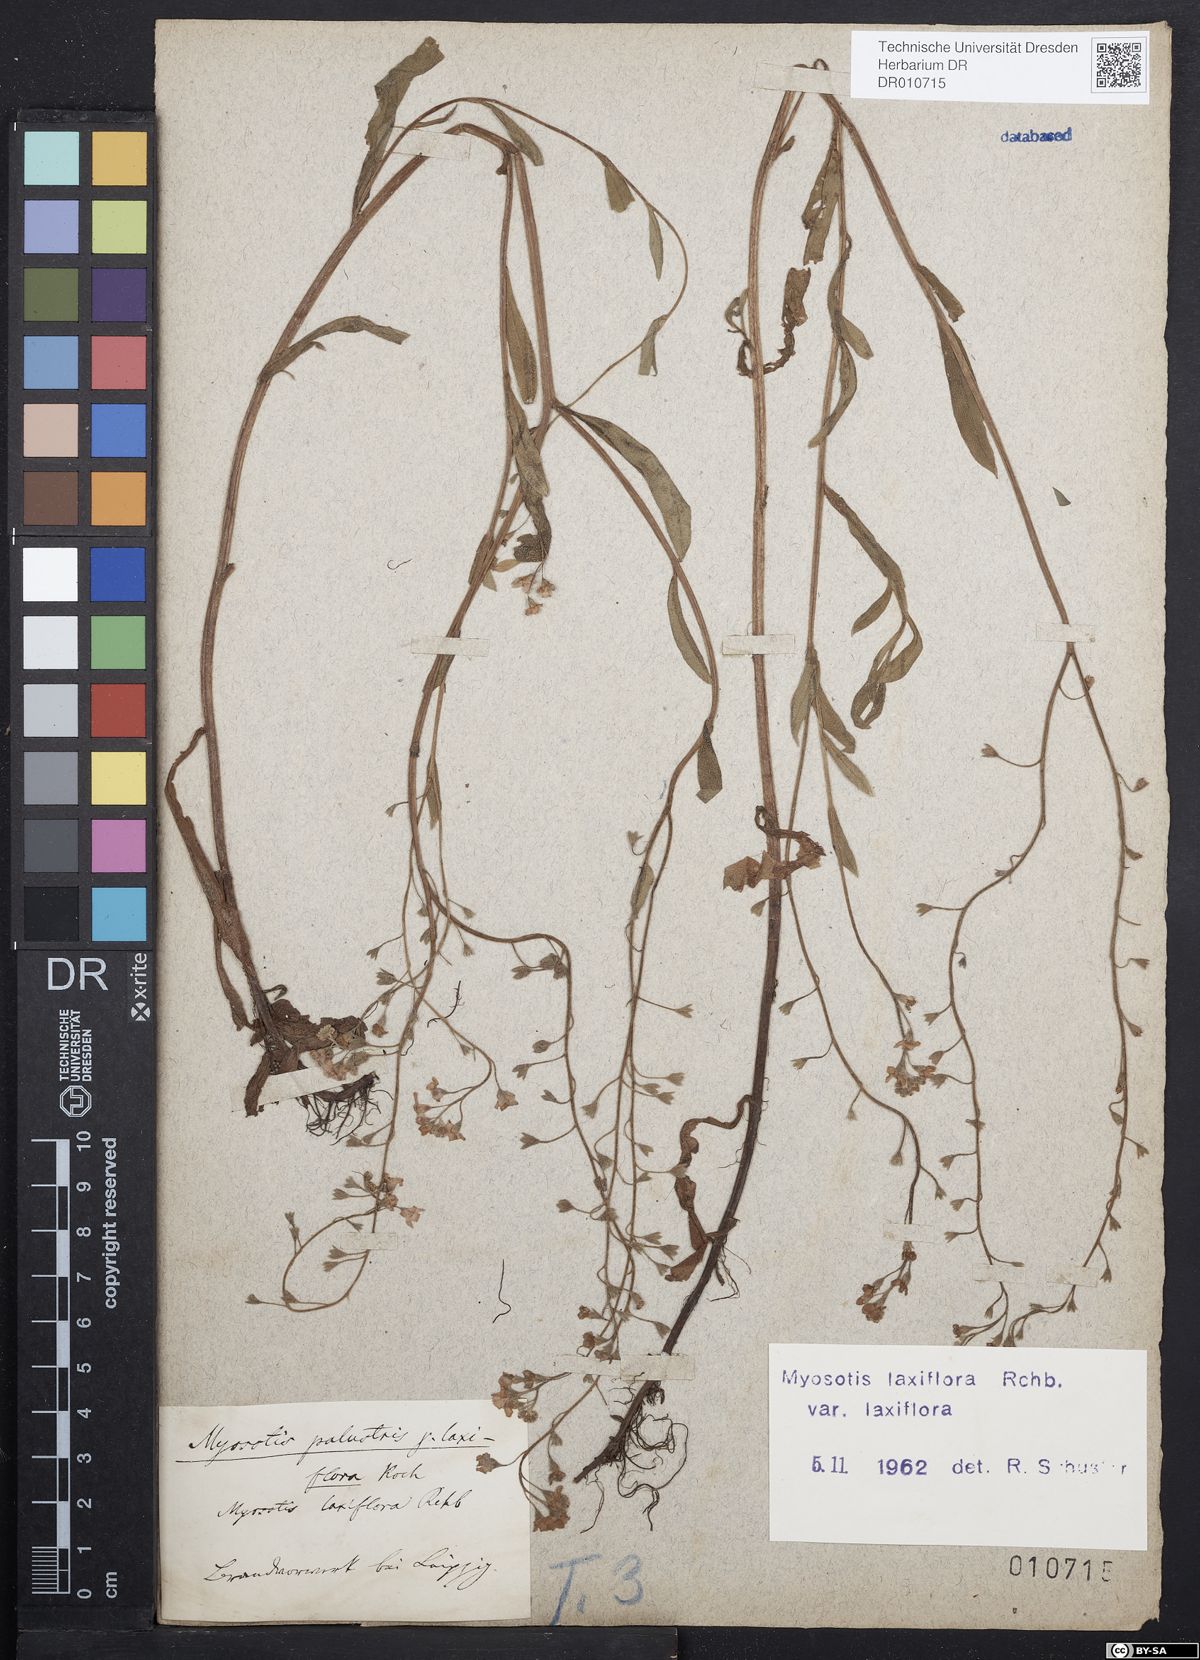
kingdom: Plantae
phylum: Tracheophyta
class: Magnoliopsida
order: Boraginales
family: Boraginaceae
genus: Myosotis
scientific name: Myosotis scorpioides
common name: Water forget-me-not
